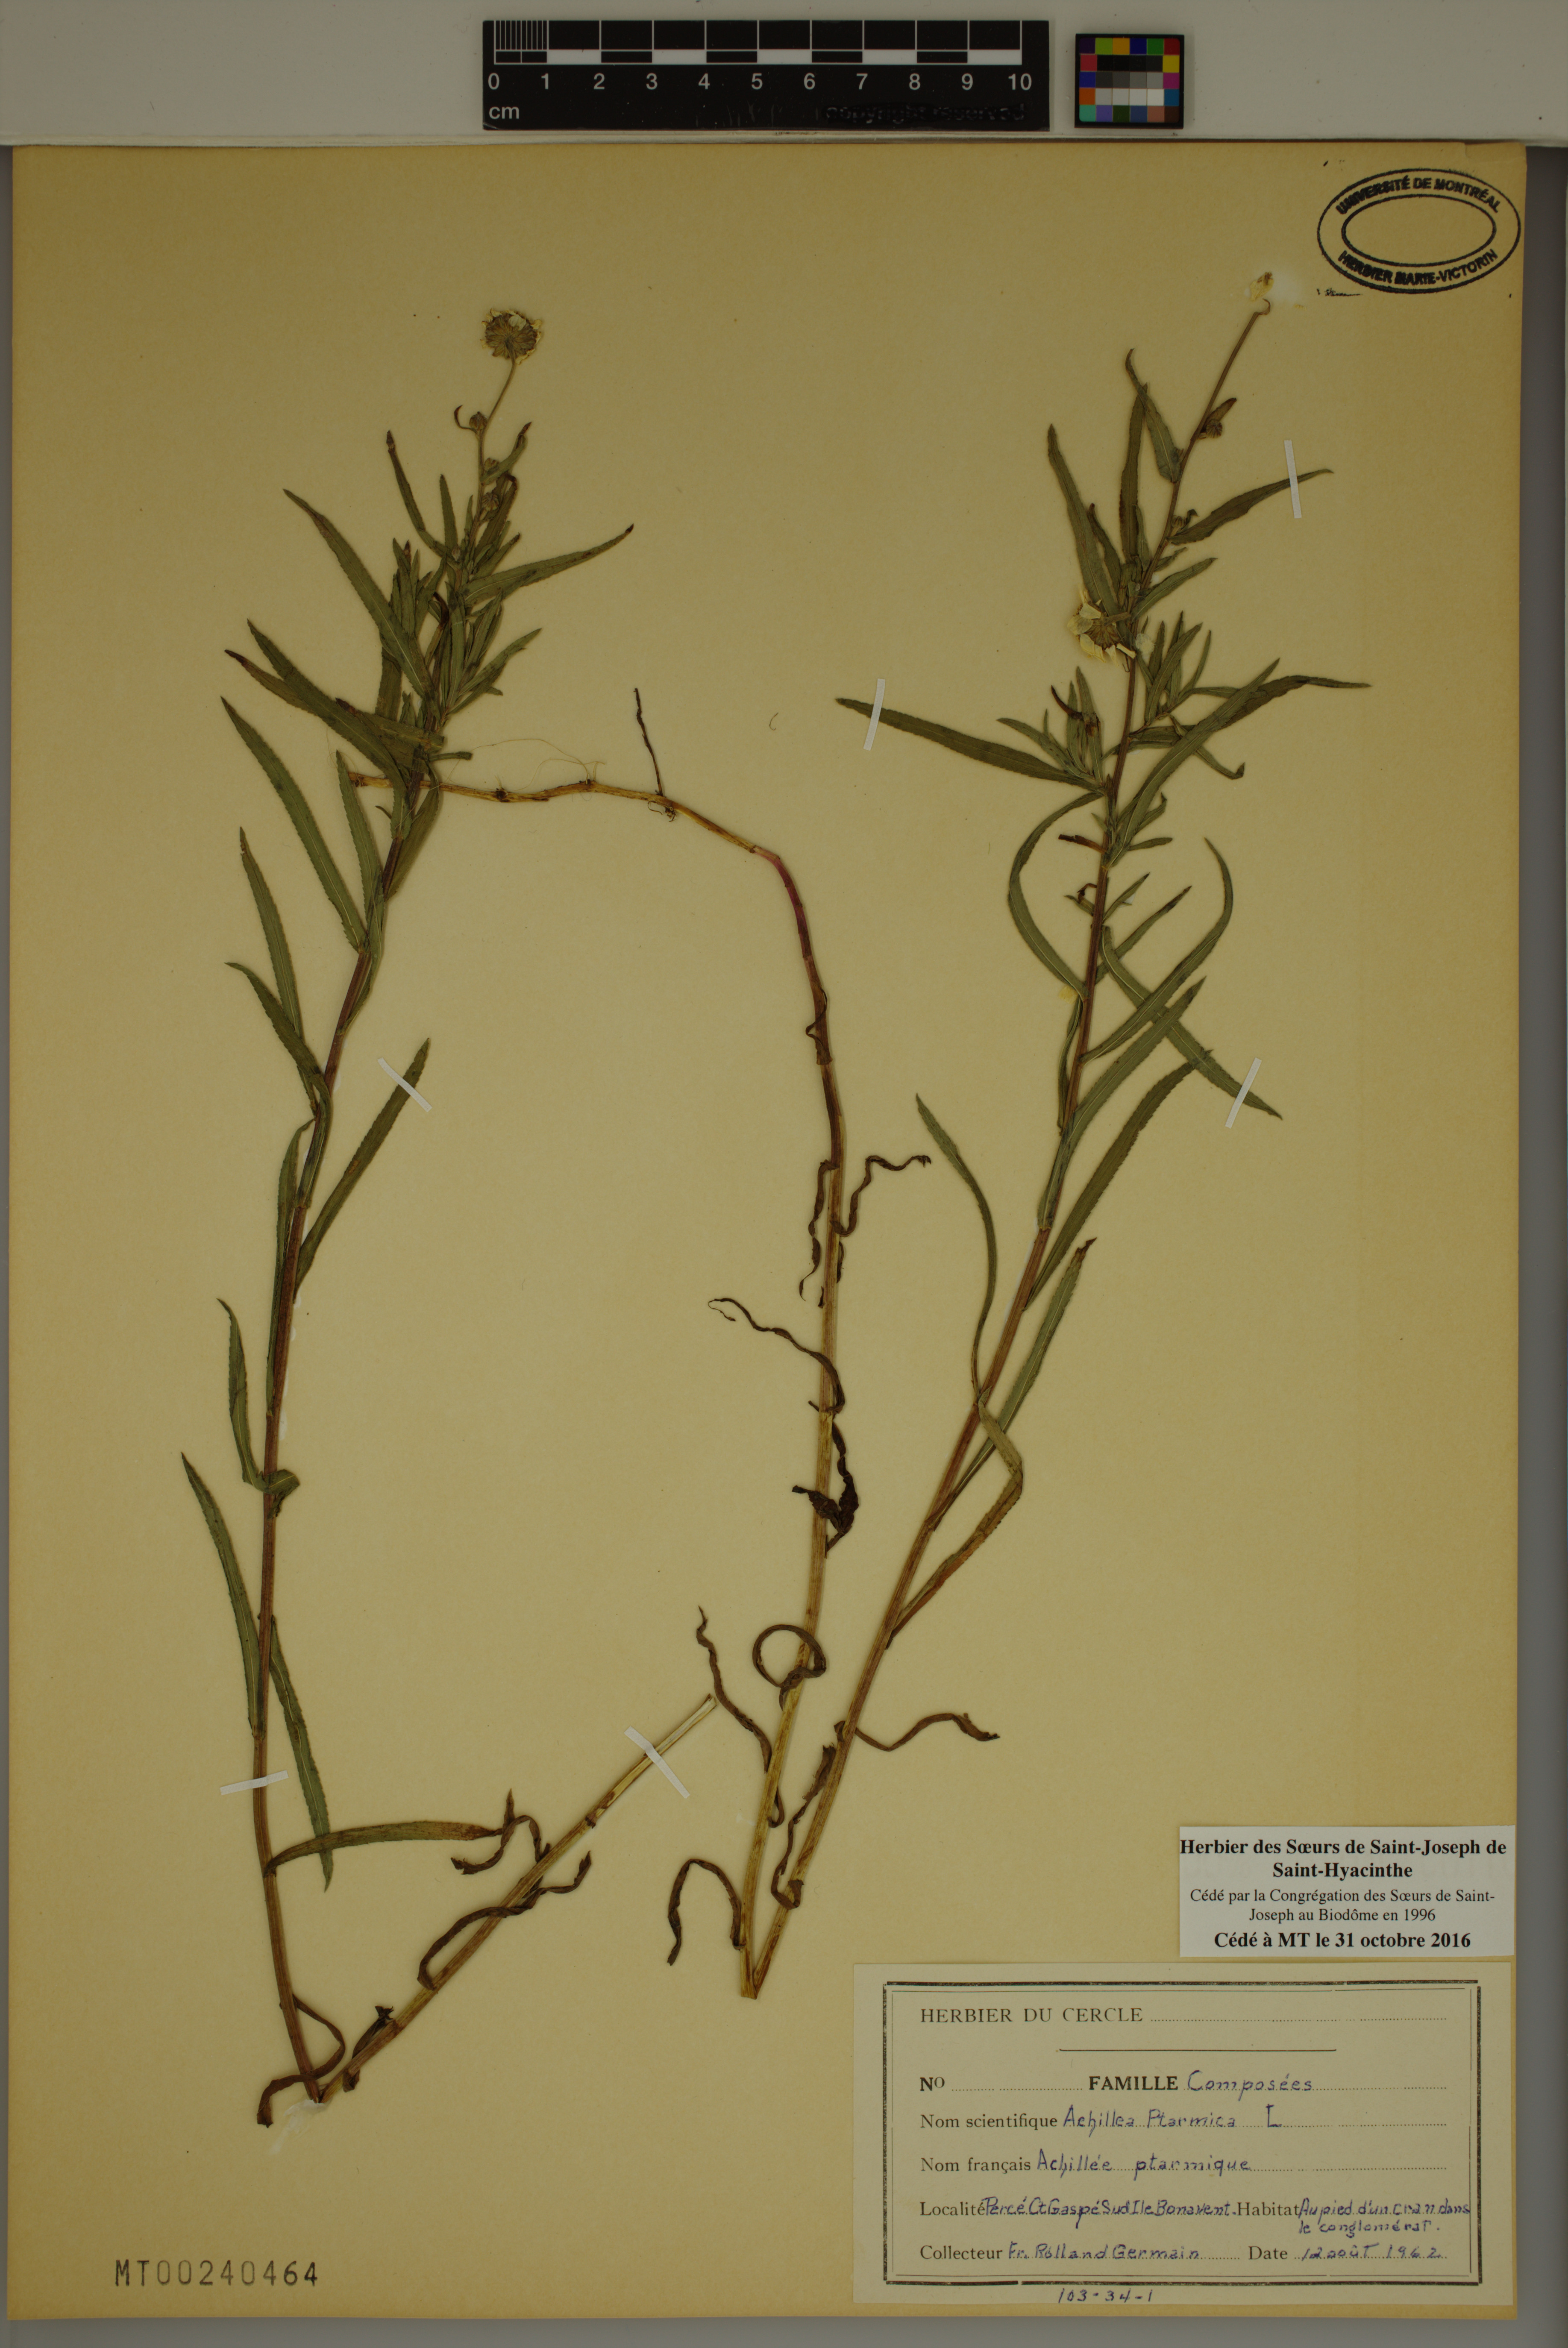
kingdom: Plantae
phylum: Tracheophyta
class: Magnoliopsida
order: Asterales
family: Asteraceae
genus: Achillea
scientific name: Achillea ptarmica
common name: Sneezeweed
